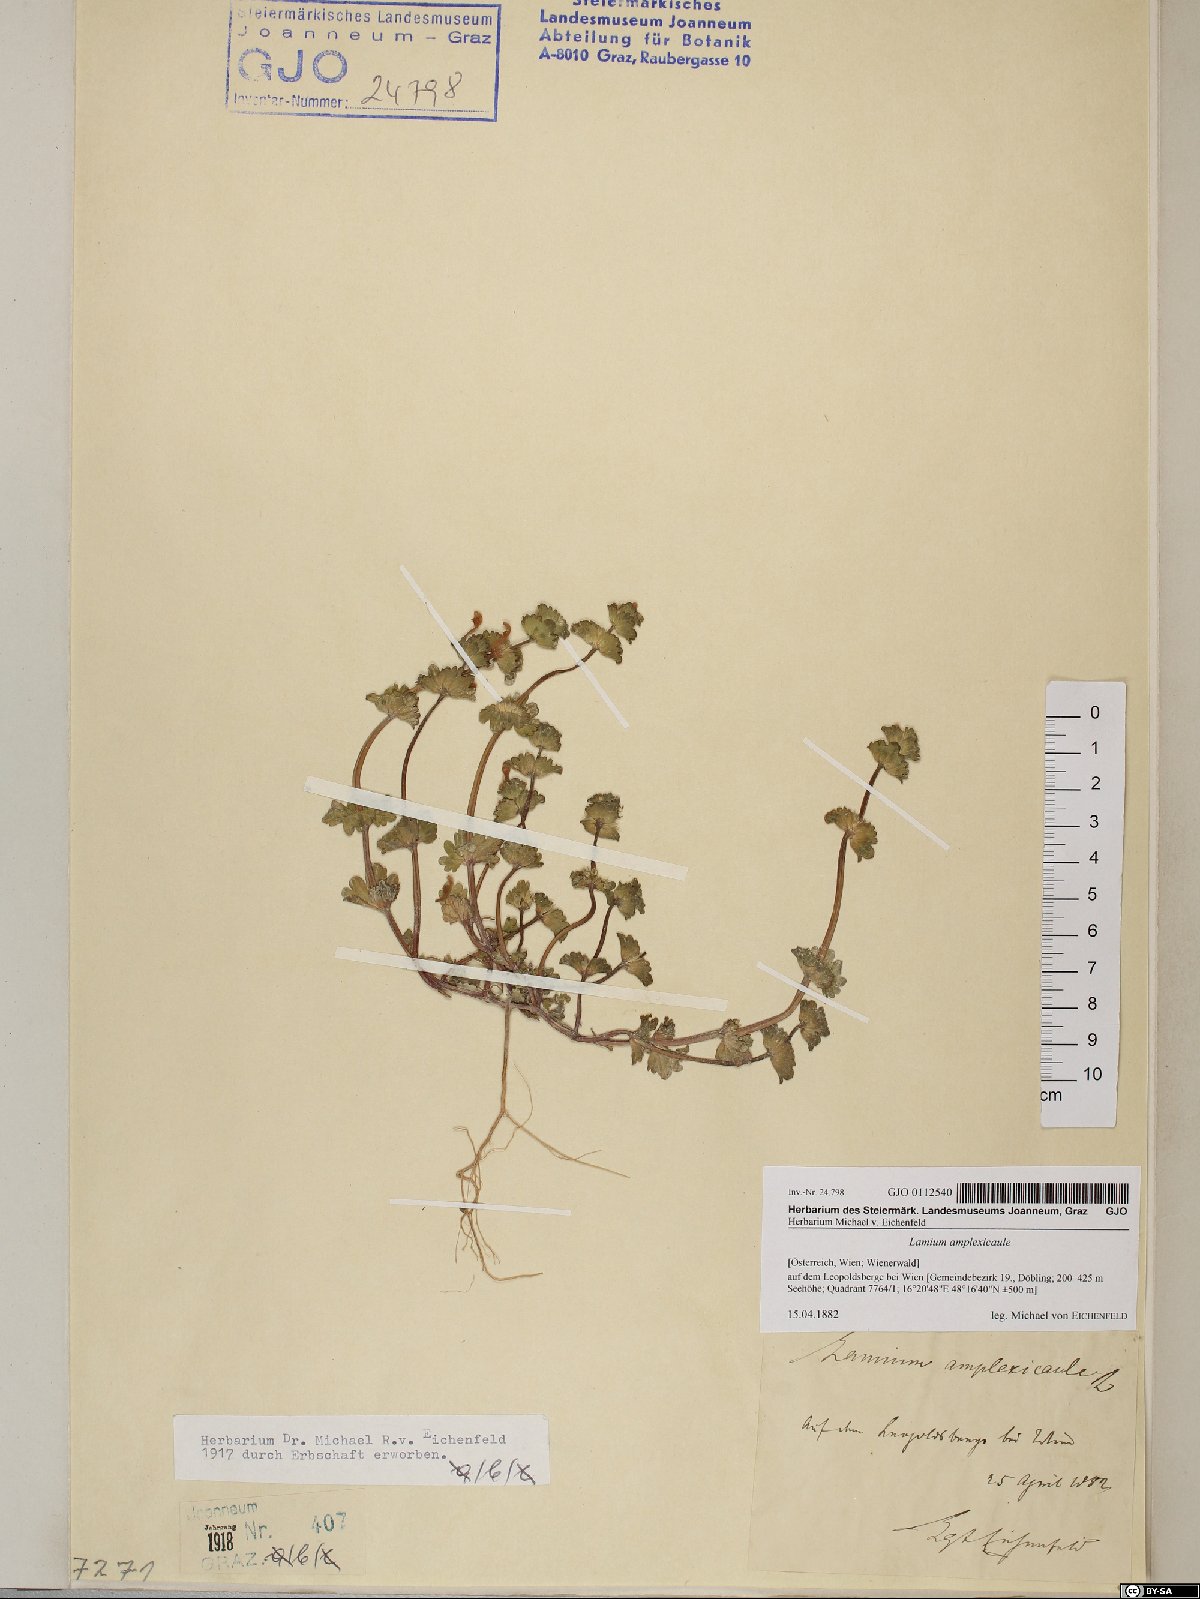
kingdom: Plantae
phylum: Tracheophyta
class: Magnoliopsida
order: Lamiales
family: Lamiaceae
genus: Lamium
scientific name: Lamium amplexicaule
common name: Henbit dead-nettle
